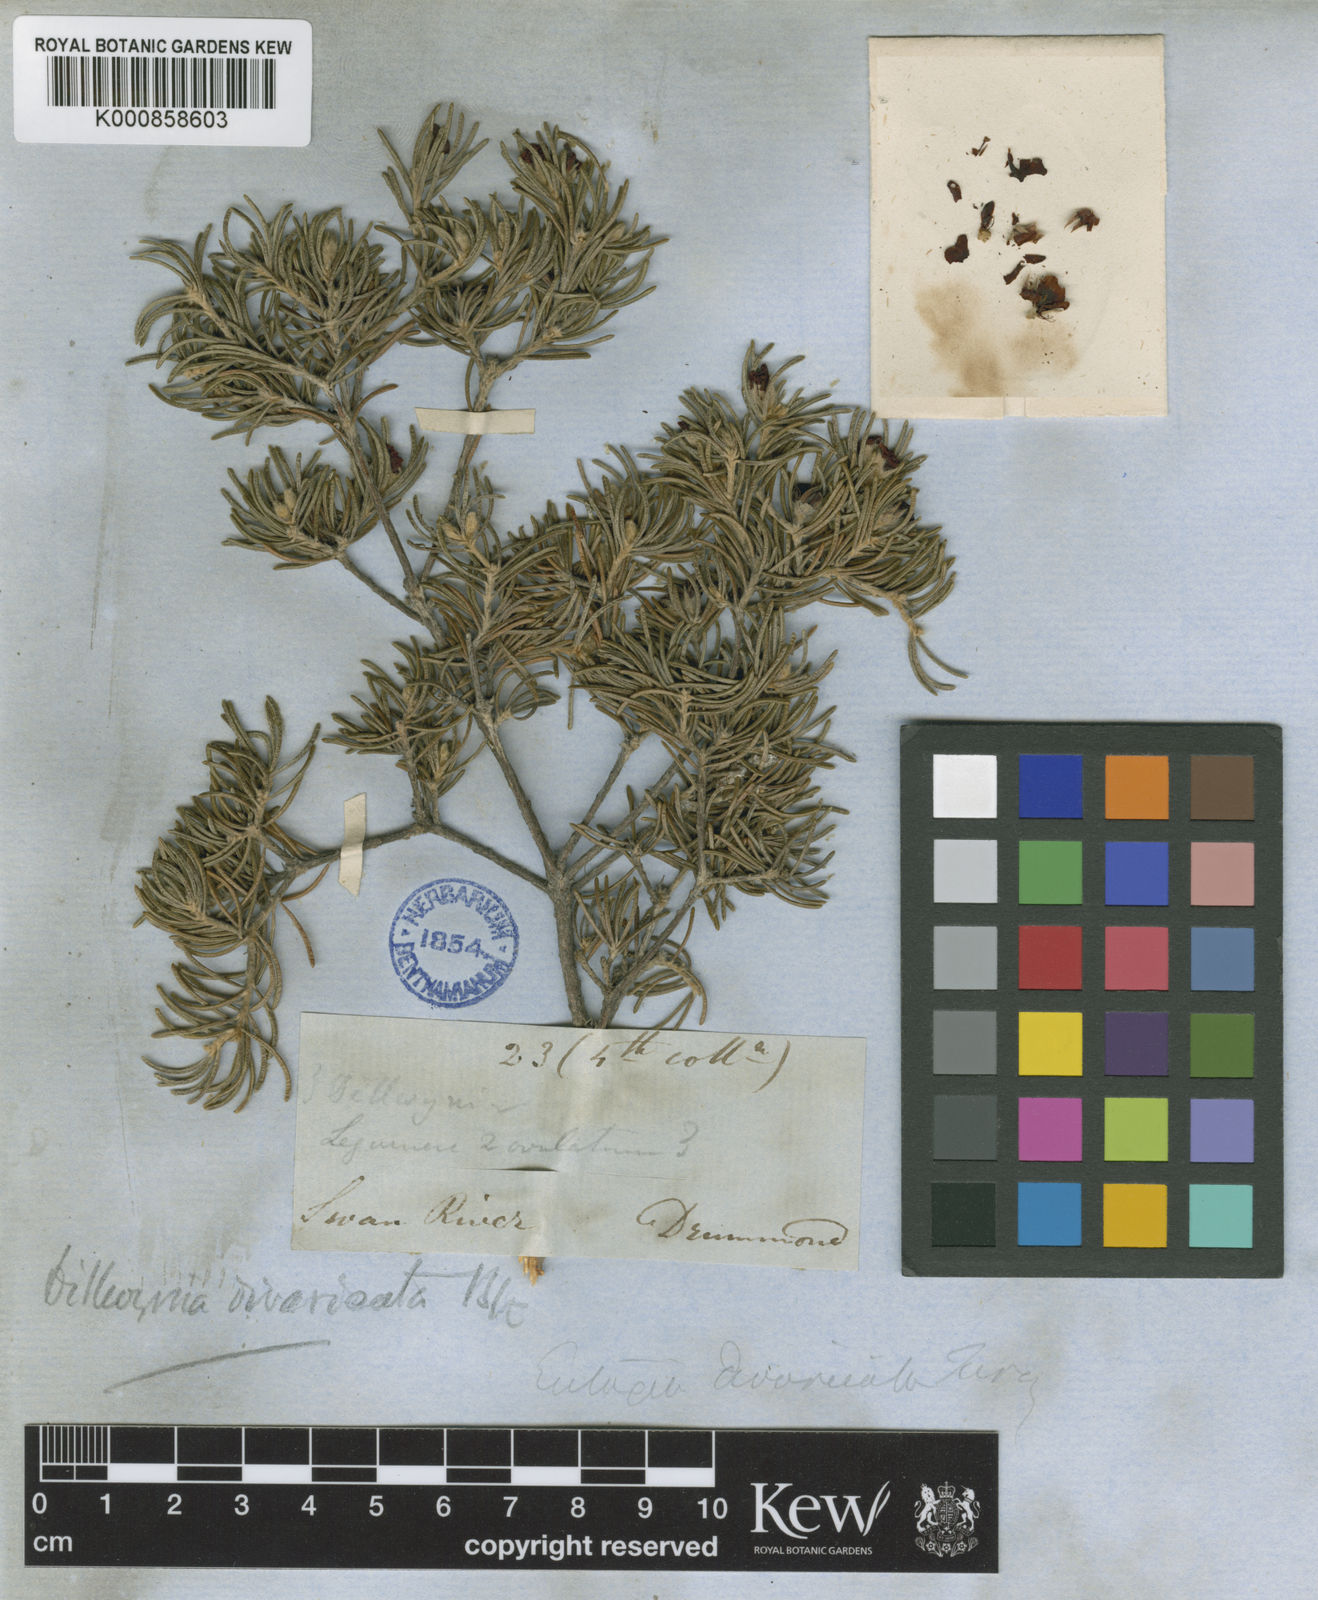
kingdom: Plantae
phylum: Tracheophyta
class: Magnoliopsida
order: Fabales
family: Fabaceae
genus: Dillwynia
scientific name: Dillwynia divaricata
